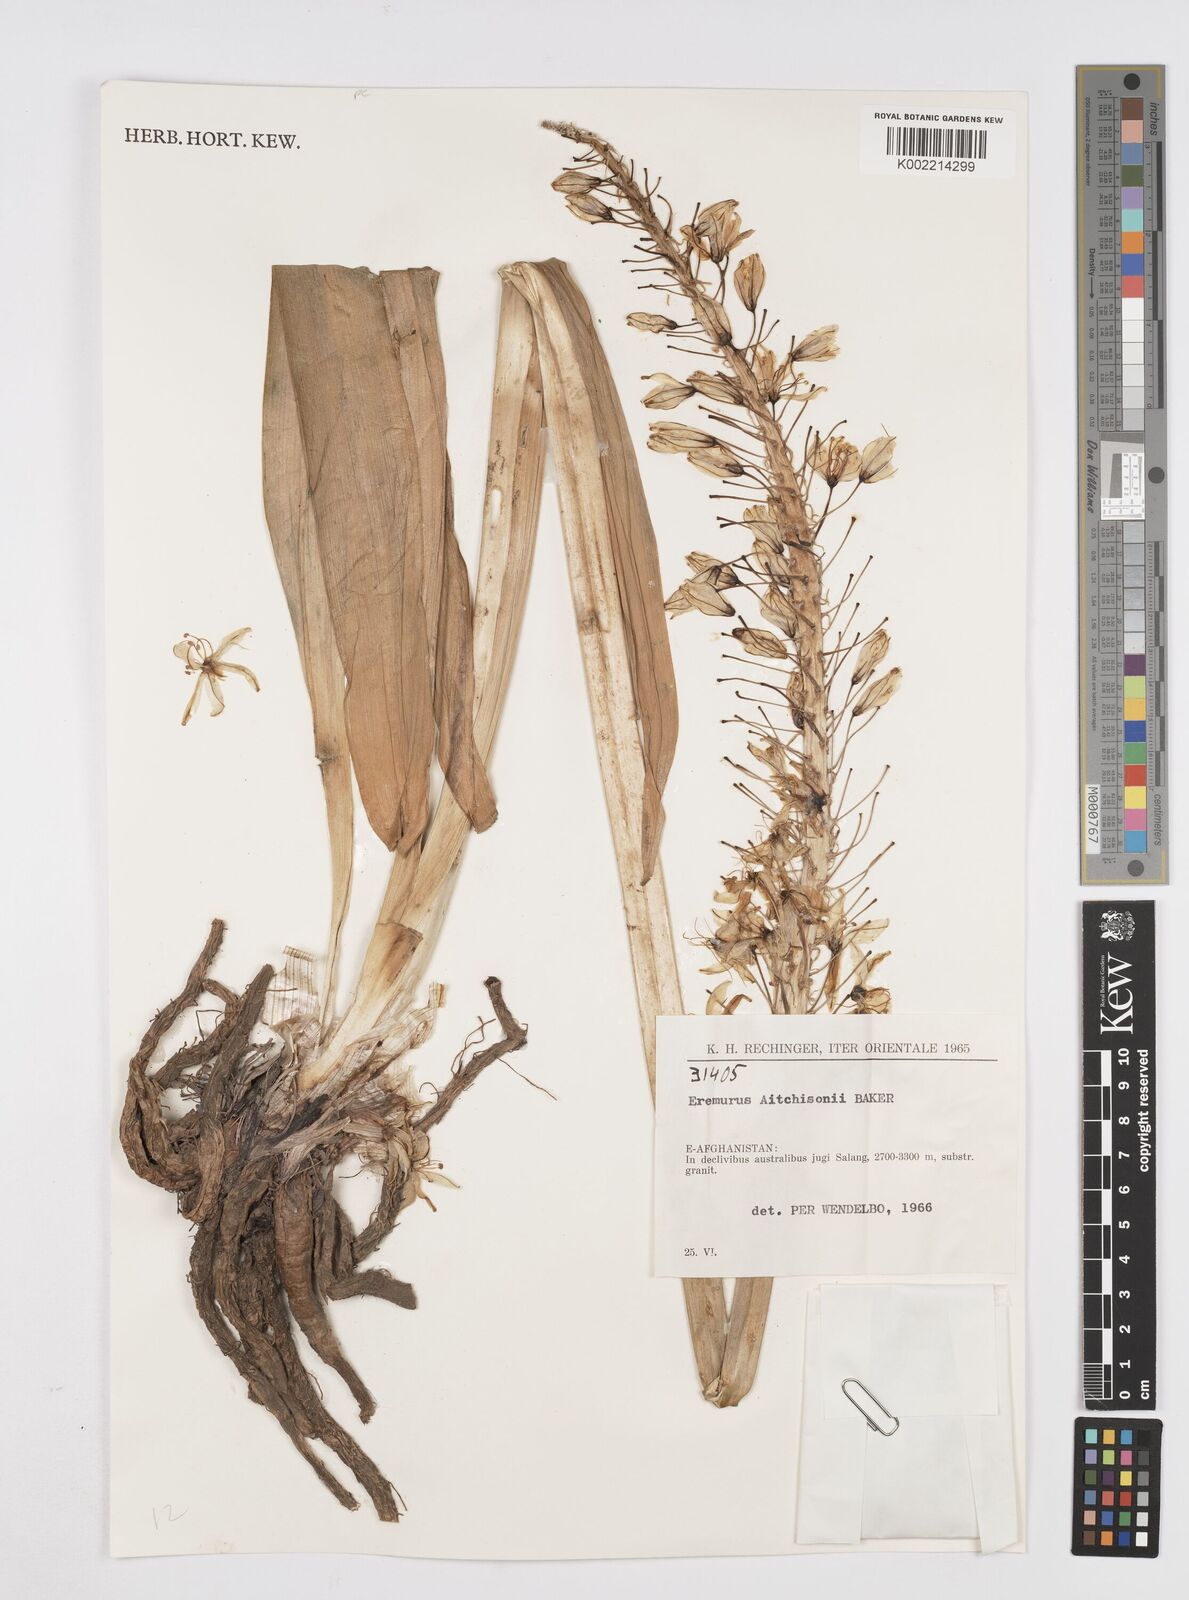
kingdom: Plantae
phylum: Tracheophyta
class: Liliopsida
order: Asparagales
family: Asphodelaceae
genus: Eremurus
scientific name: Eremurus aitchisonii
